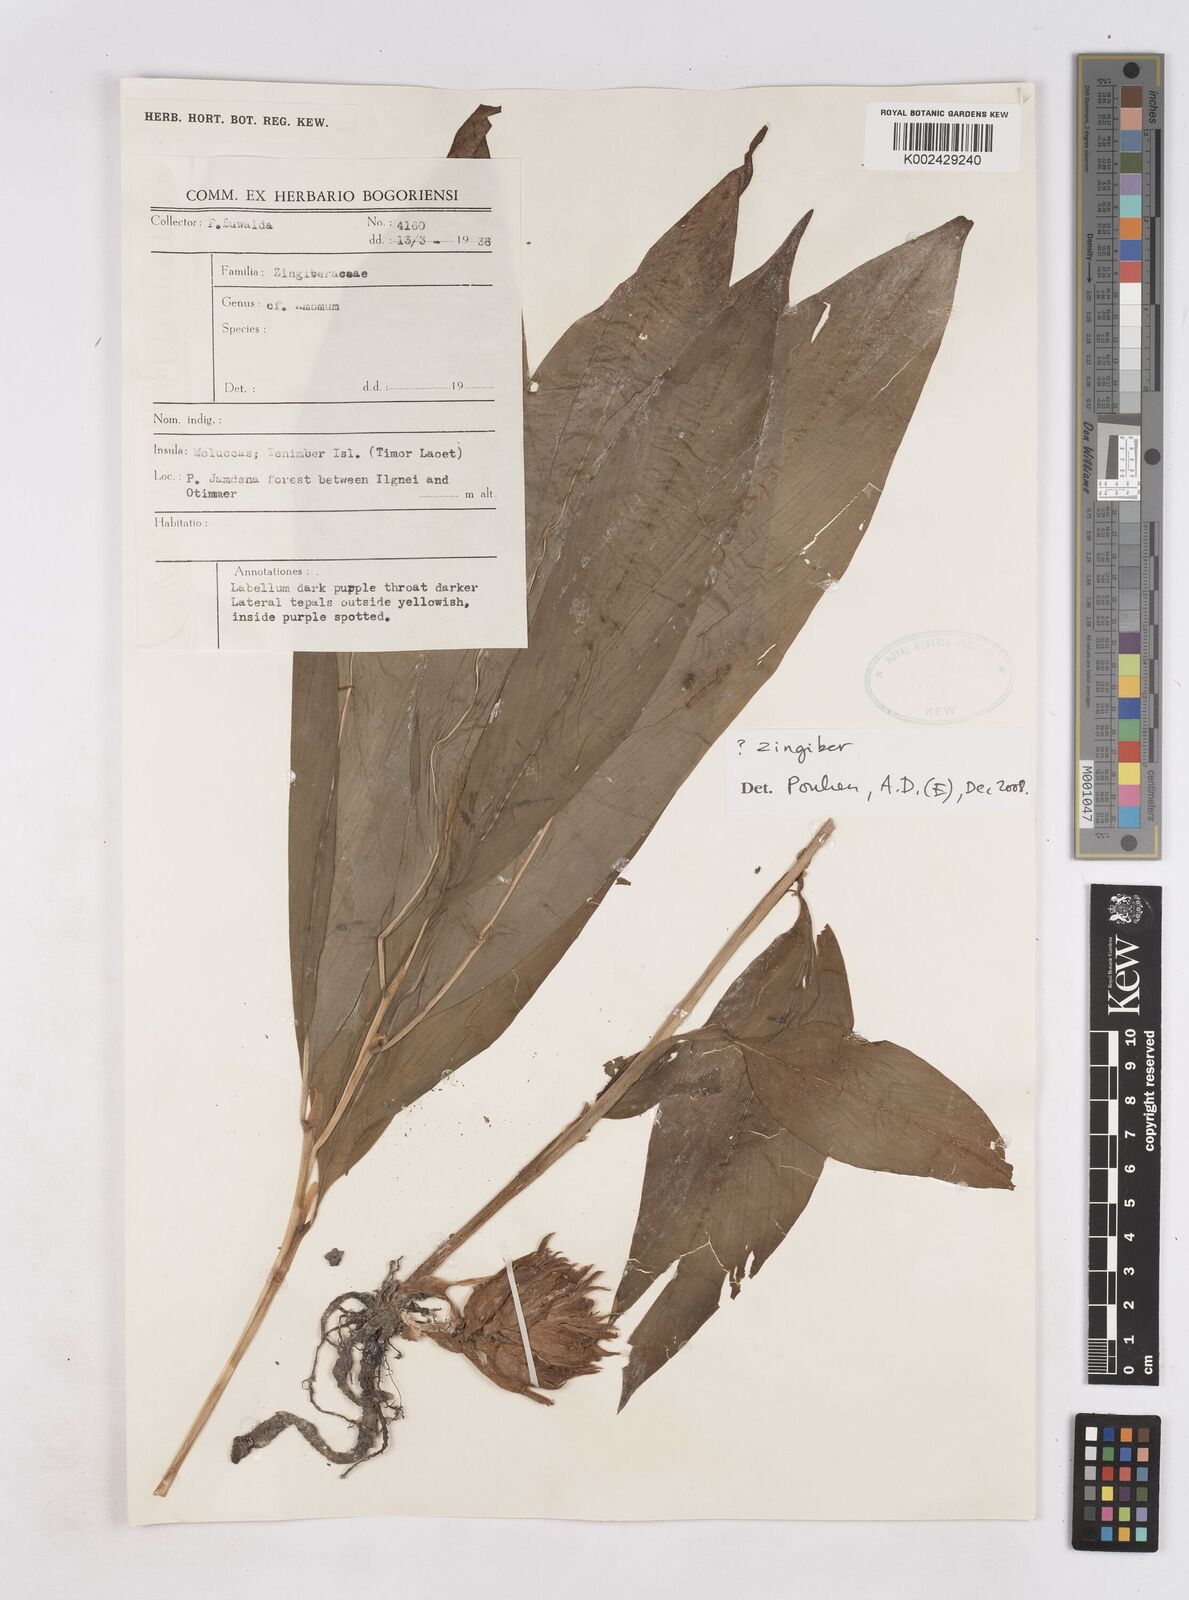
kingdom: Plantae
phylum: Tracheophyta
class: Liliopsida
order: Zingiberales
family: Zingiberaceae
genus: Zingiber
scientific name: Zingiber
